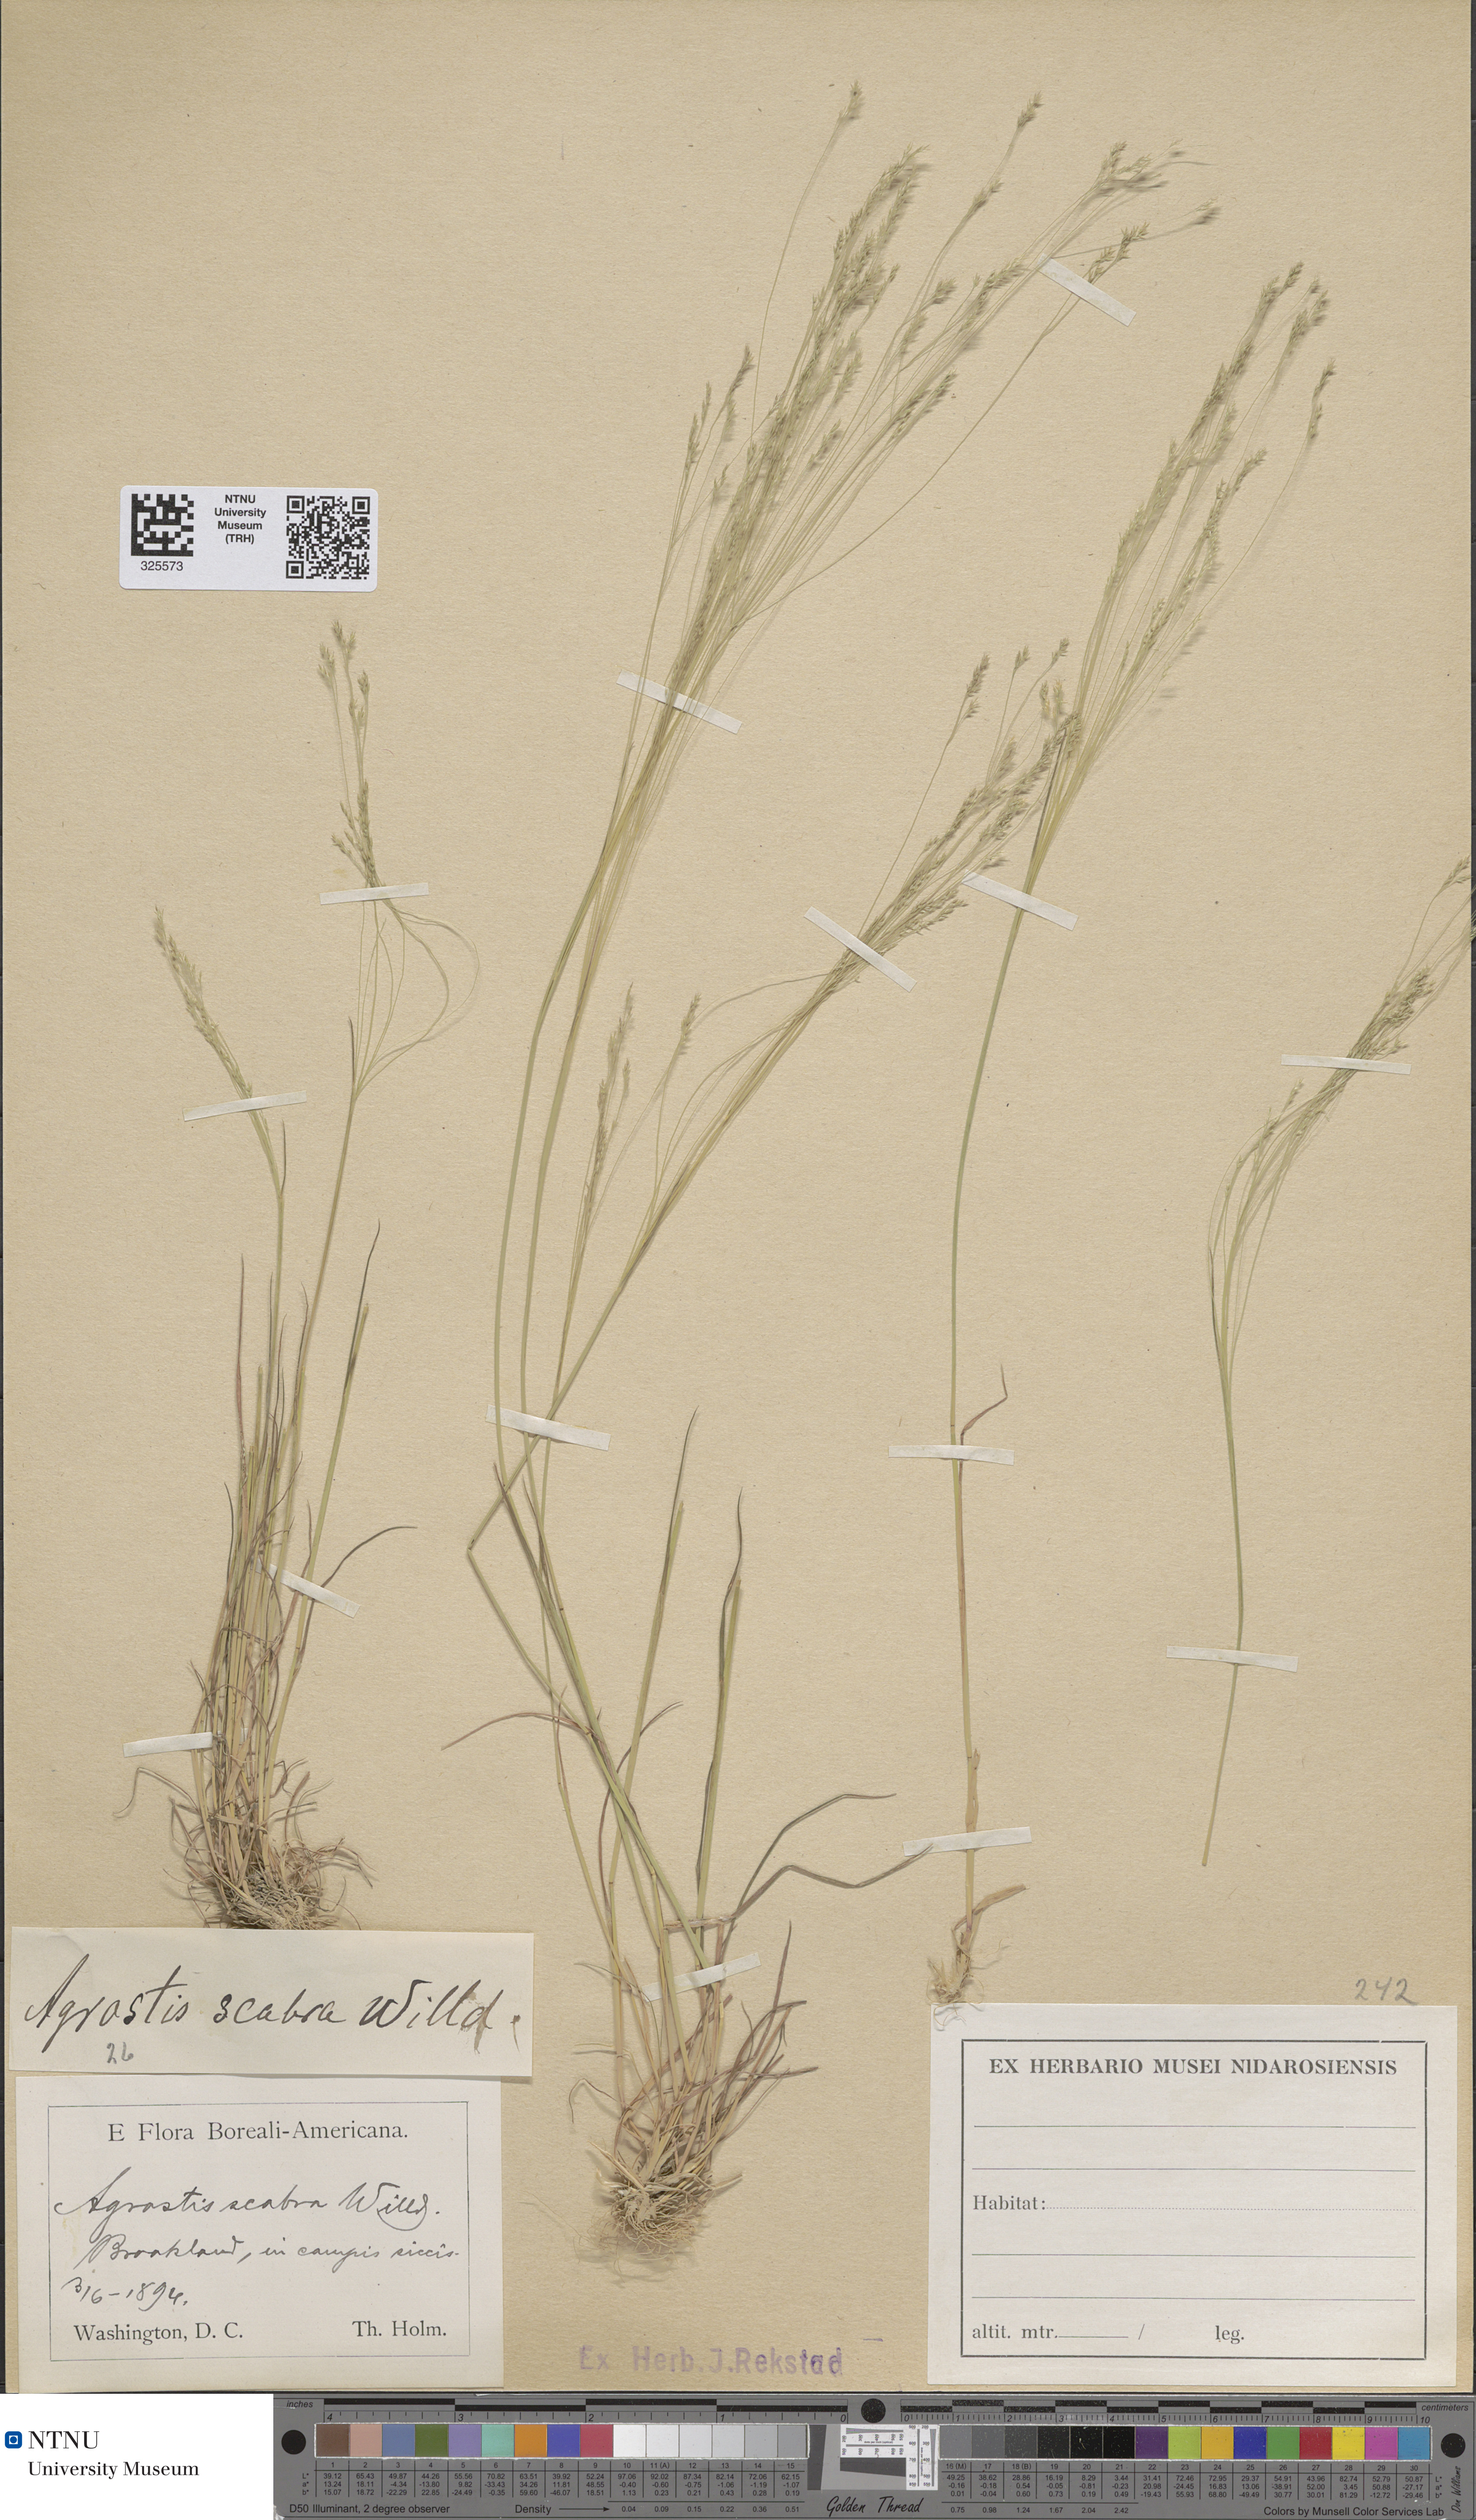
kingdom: Plantae
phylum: Tracheophyta
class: Liliopsida
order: Poales
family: Poaceae
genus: Agrostis
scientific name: Agrostis scabra
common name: Rough bent
